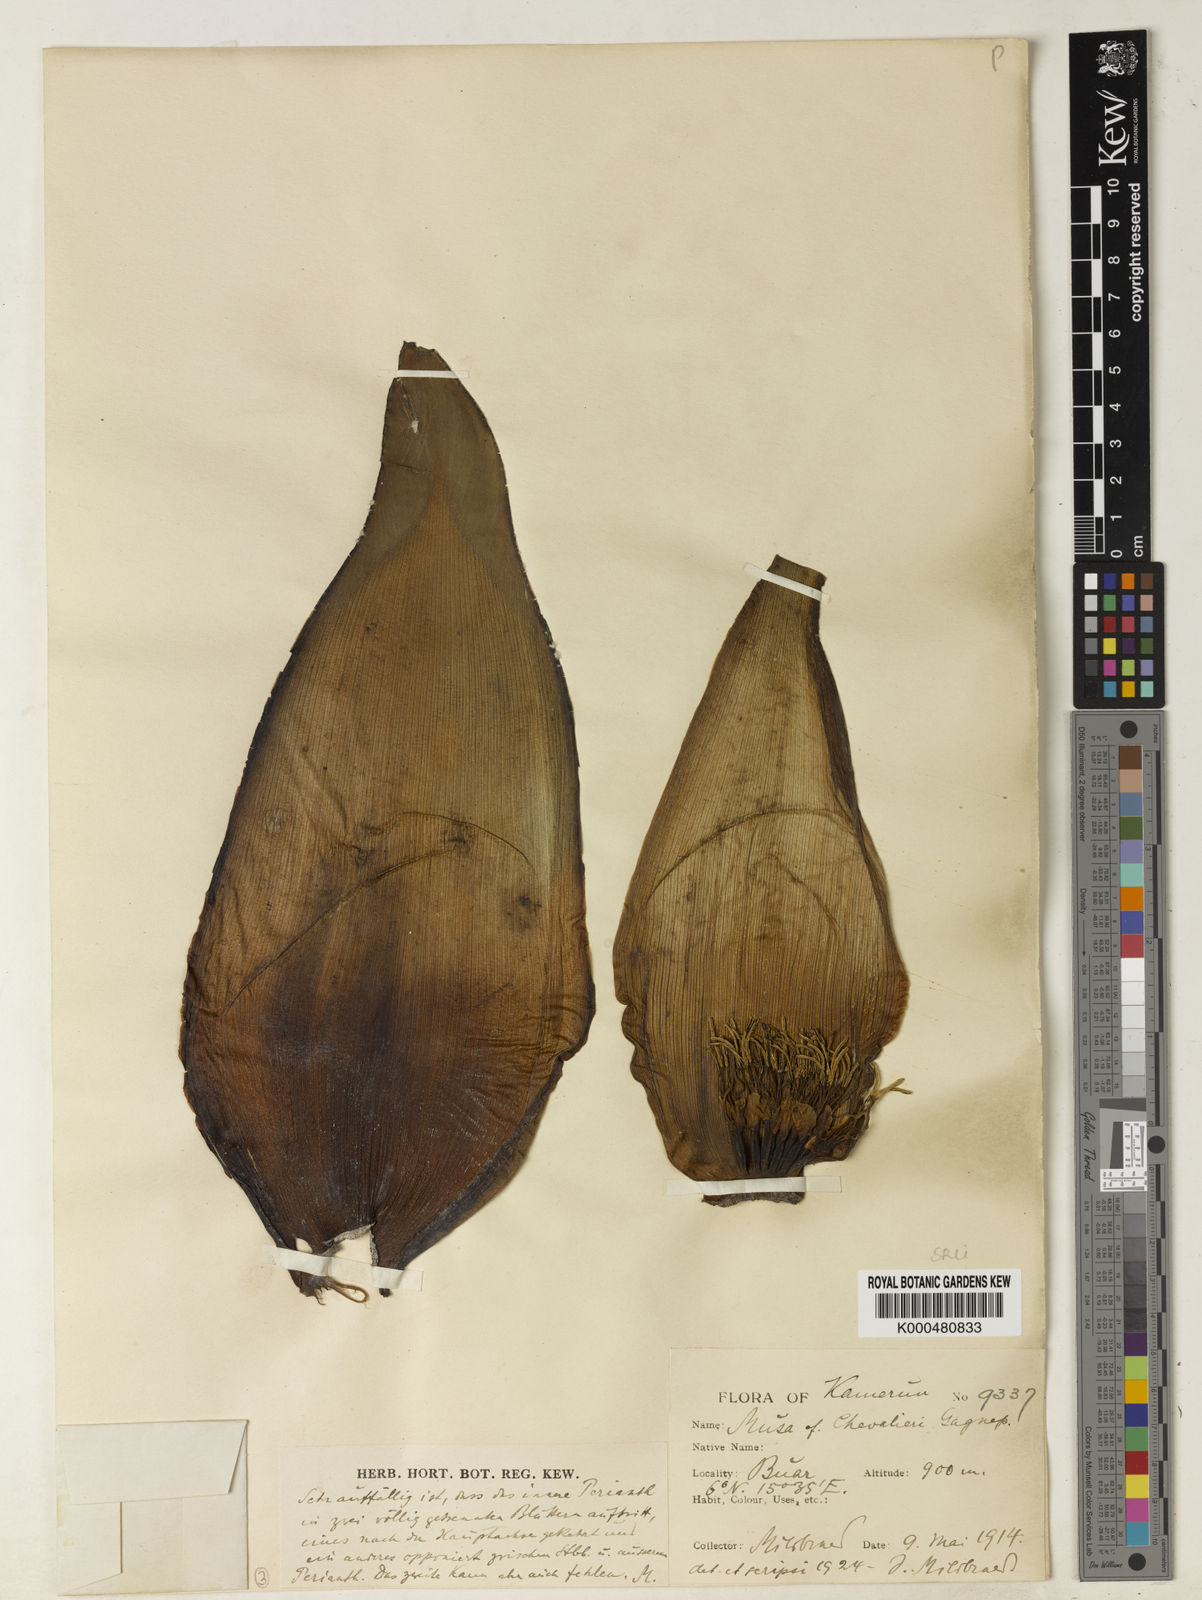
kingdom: Plantae
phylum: Tracheophyta
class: Magnoliopsida
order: Malpighiales
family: Malpighiaceae
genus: Byrsonima
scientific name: Byrsonima coccolobifolia
